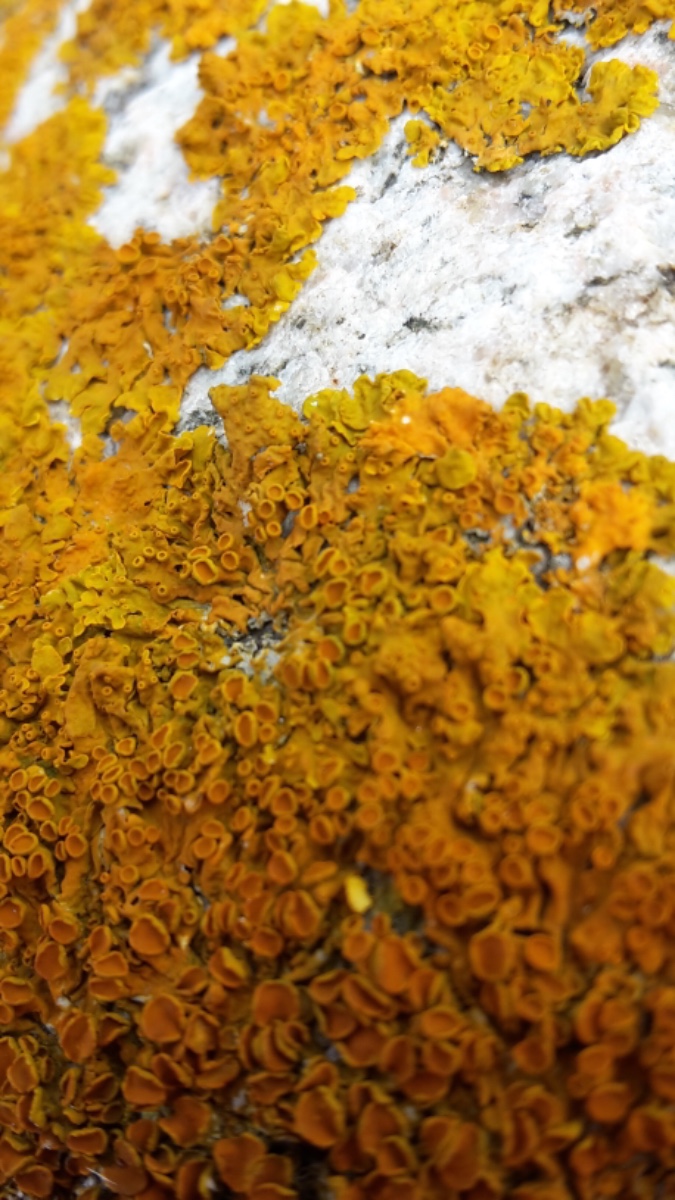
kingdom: Fungi
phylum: Ascomycota
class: Lecanoromycetes
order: Teloschistales
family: Teloschistaceae
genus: Xanthoria
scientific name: Xanthoria parietina
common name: almindelig væggelav
